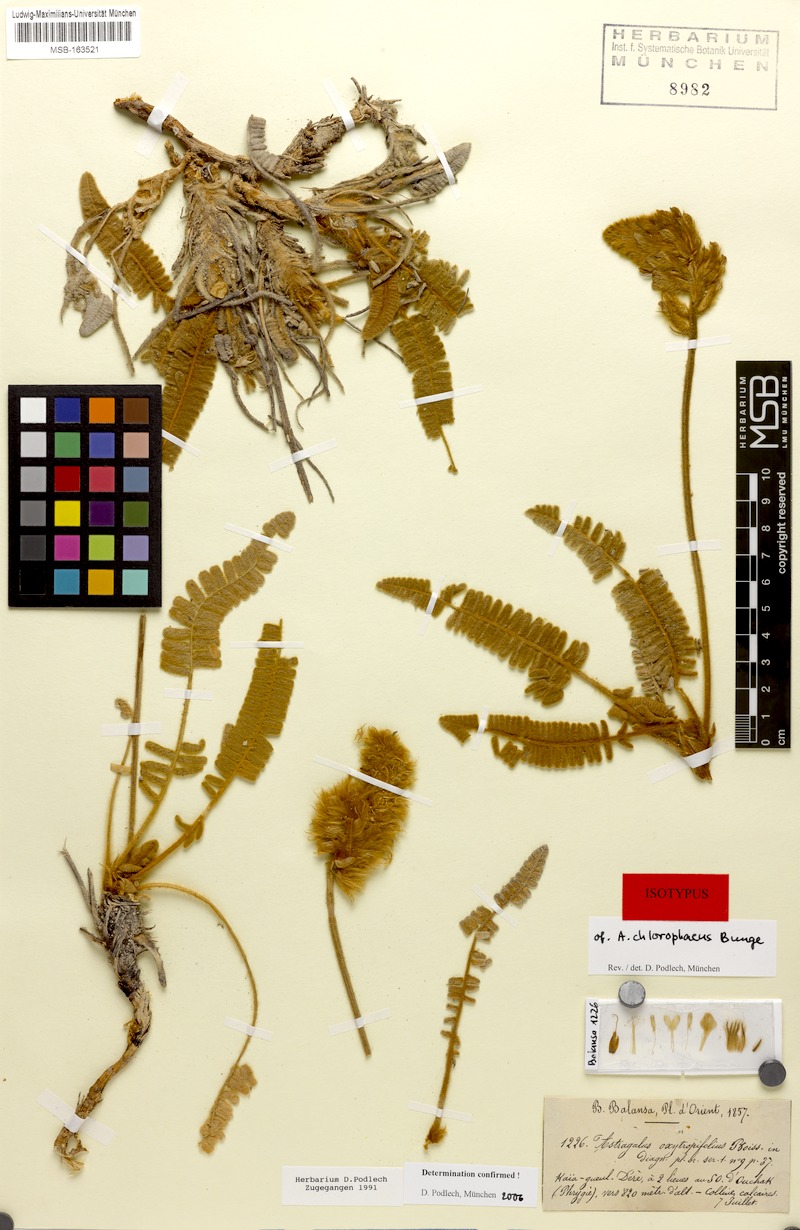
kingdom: Plantae
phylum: Tracheophyta
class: Magnoliopsida
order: Fabales
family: Fabaceae
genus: Astragalus
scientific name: Astragalus oxytropifolius
